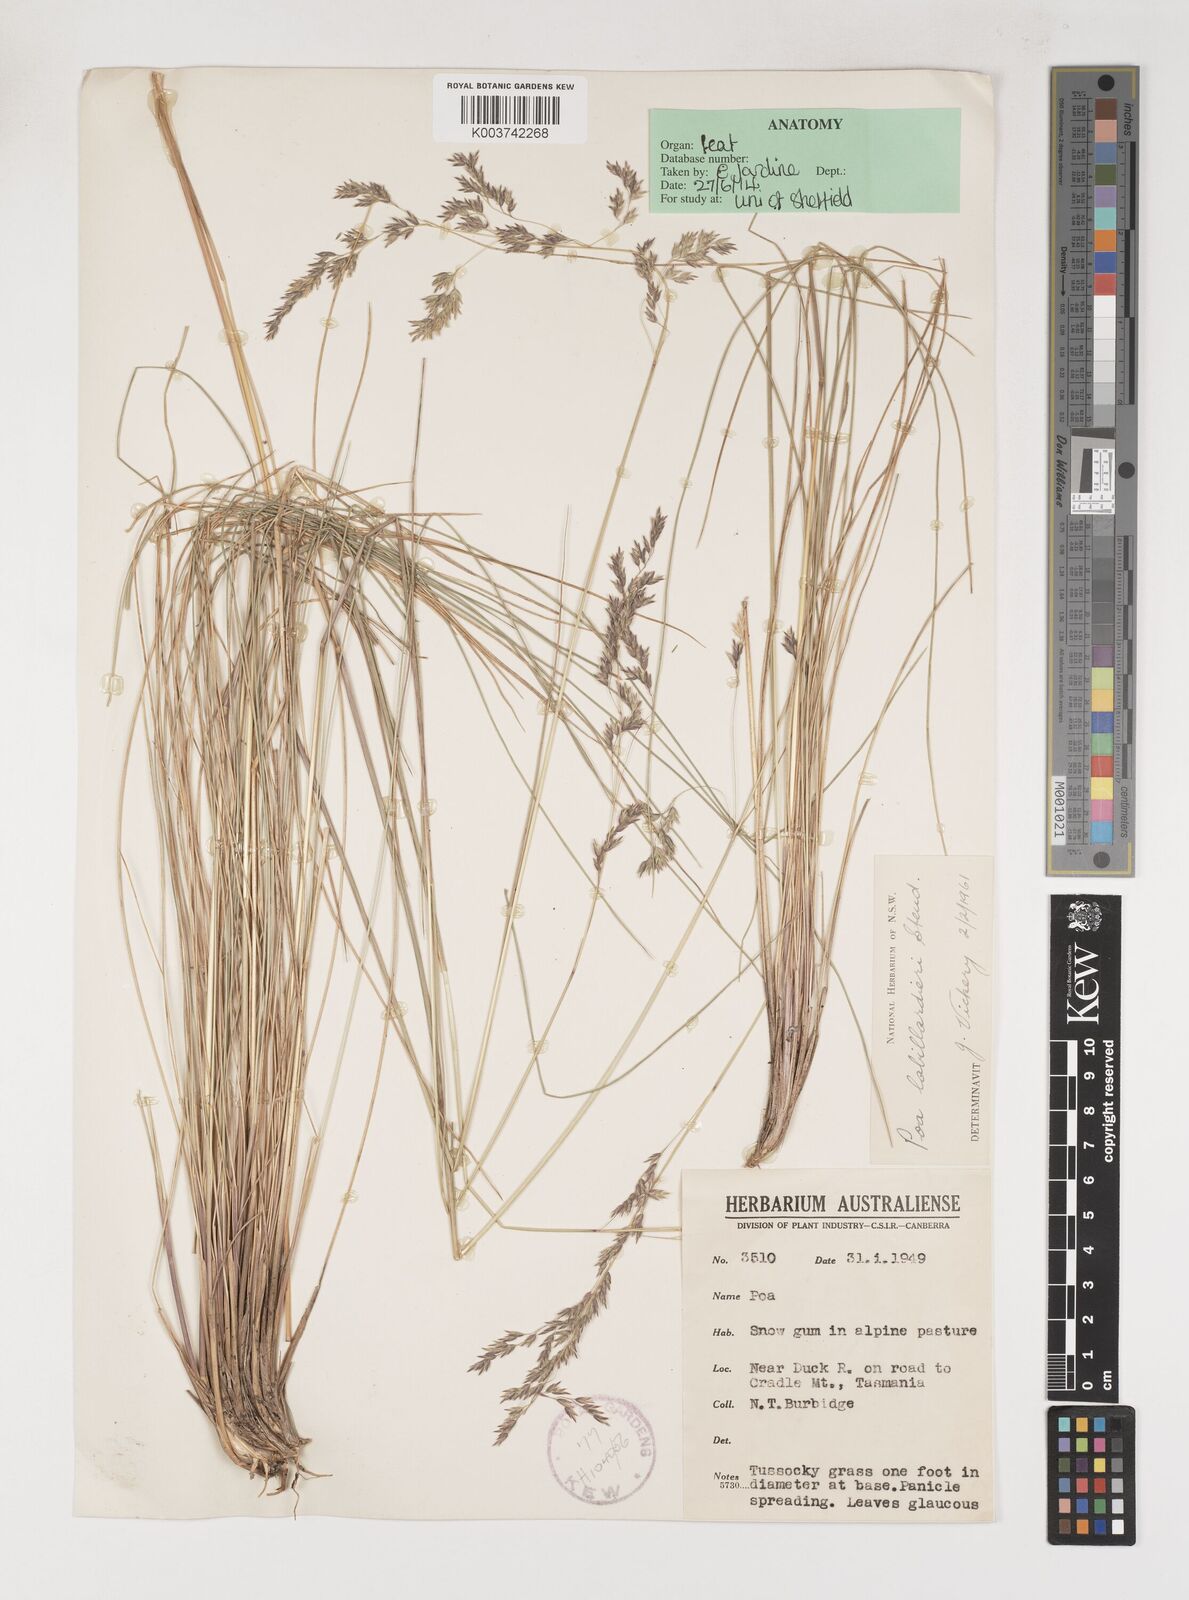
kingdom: Plantae
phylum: Tracheophyta
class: Liliopsida
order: Poales
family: Poaceae
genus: Poa
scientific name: Poa labillardierei
